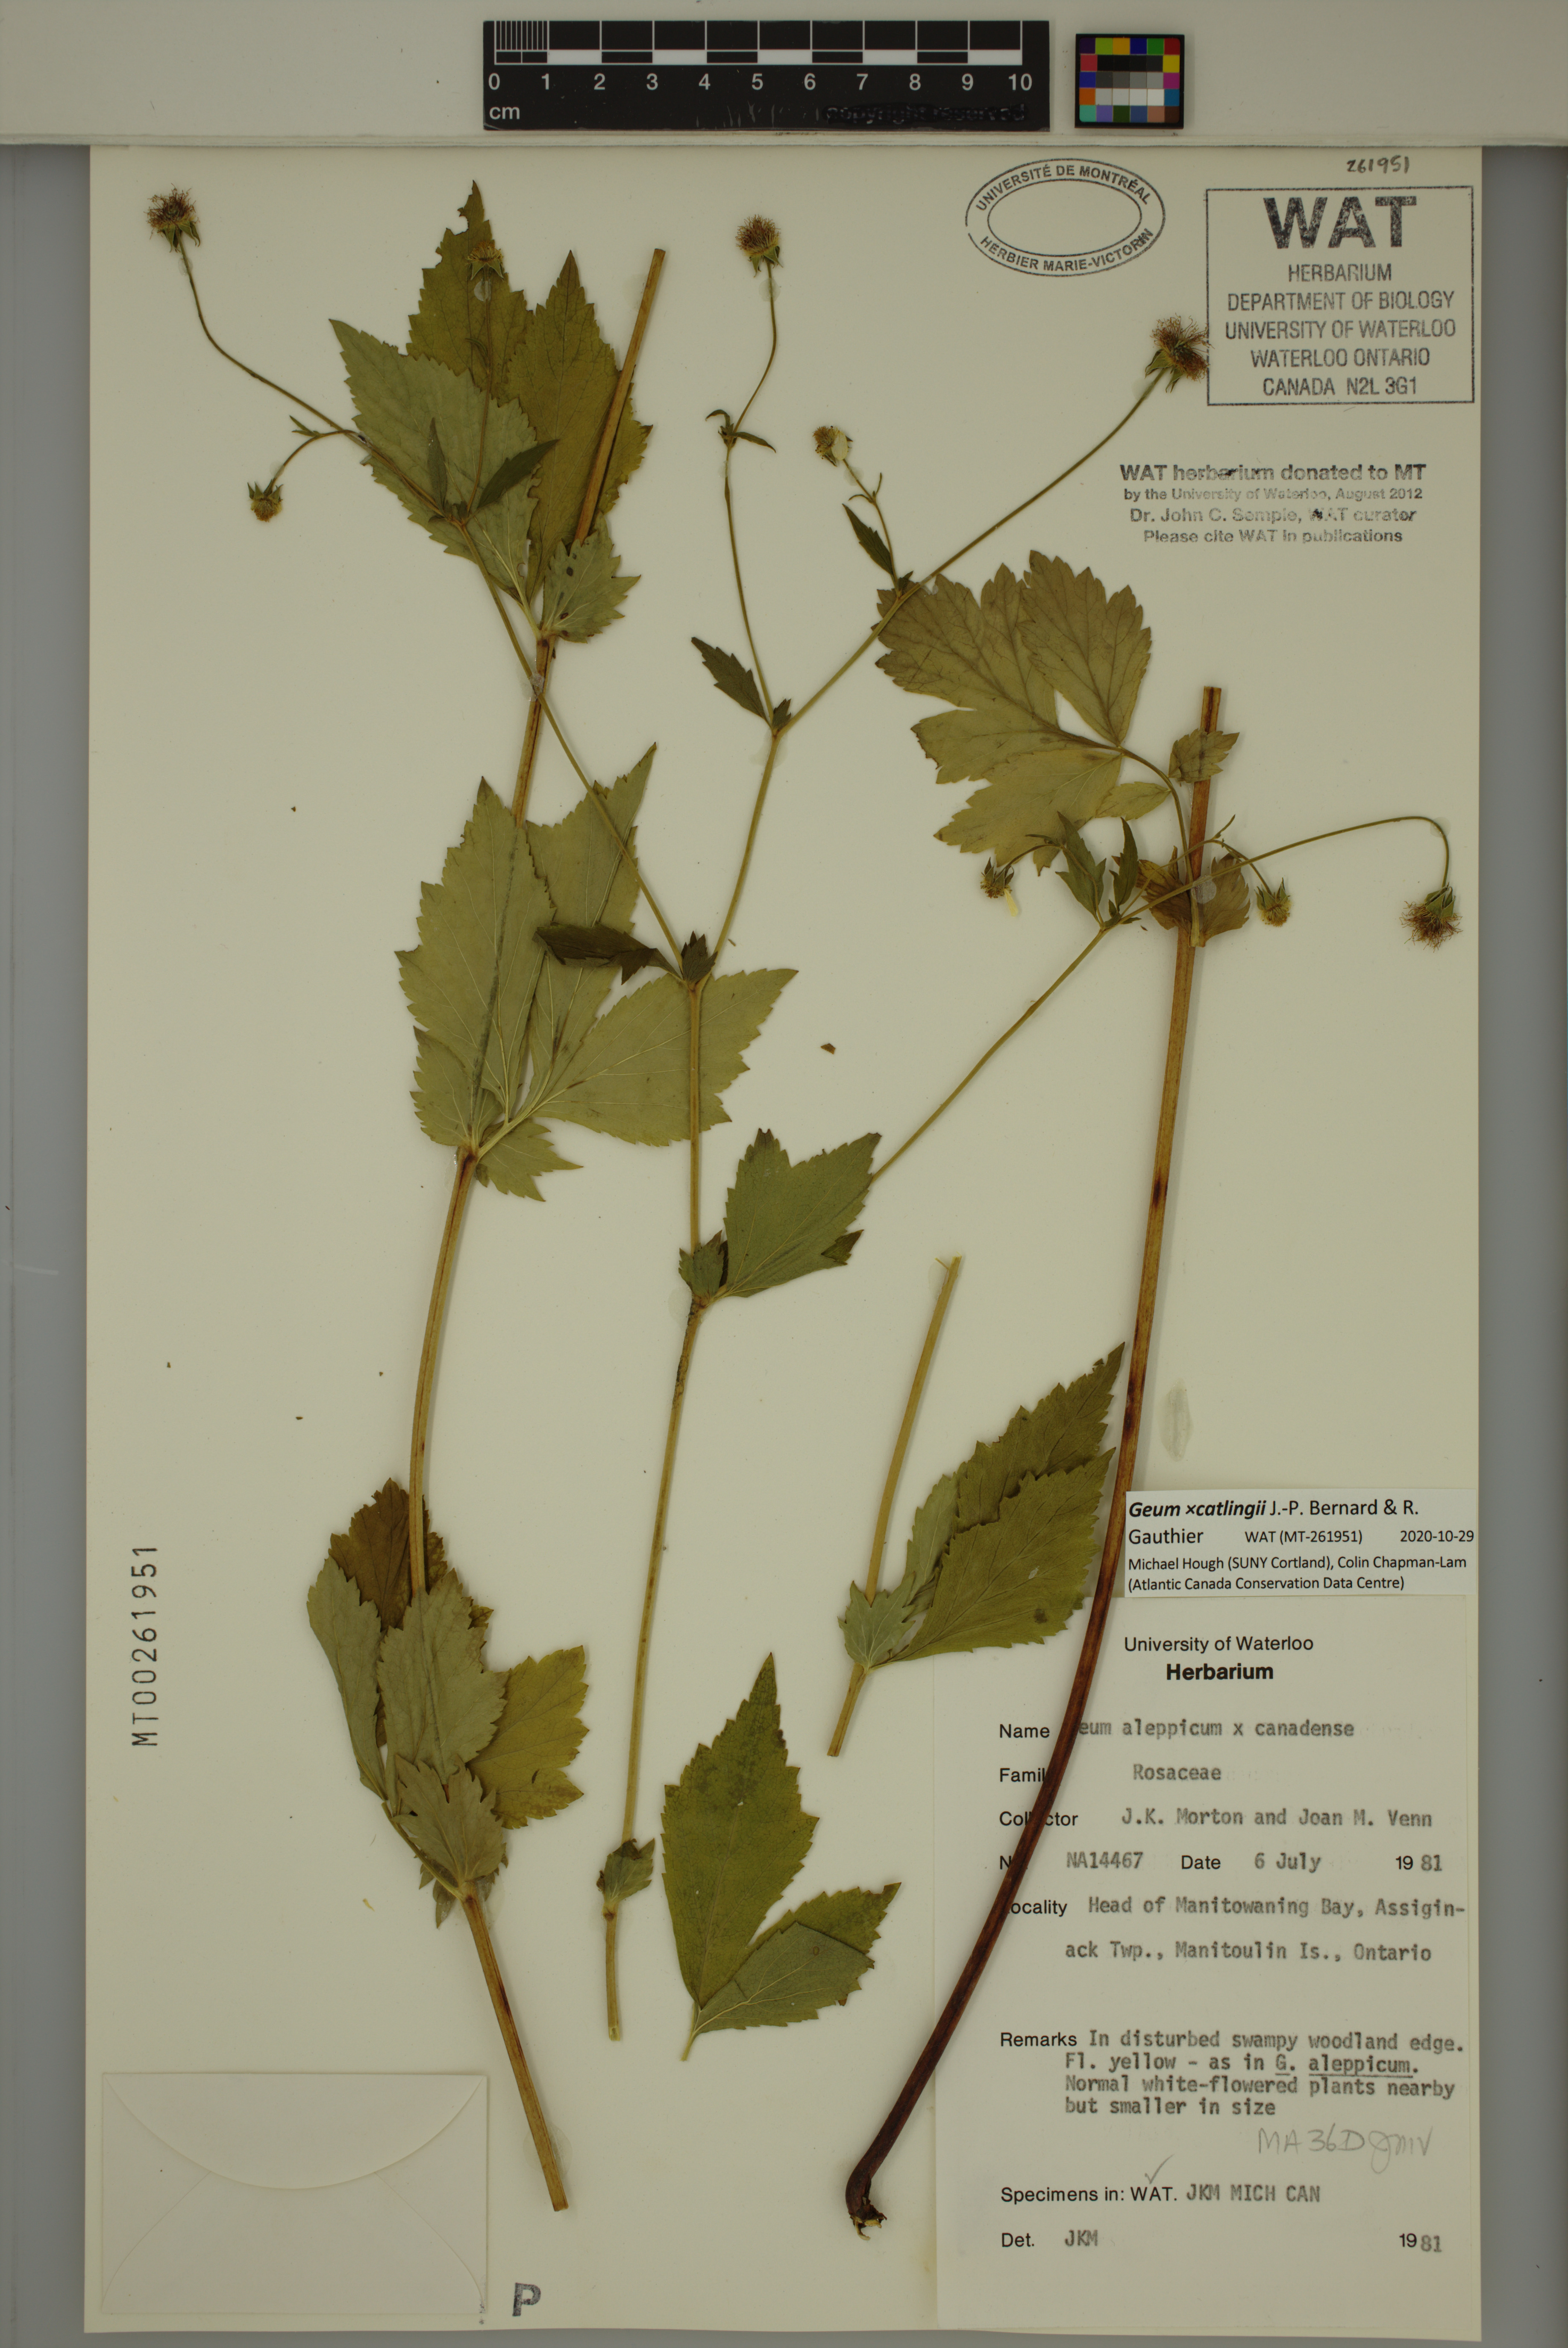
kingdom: Plantae
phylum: Tracheophyta
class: Magnoliopsida
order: Rosales
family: Rosaceae
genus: Geum
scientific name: Geum catlingii
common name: Catling's avens
